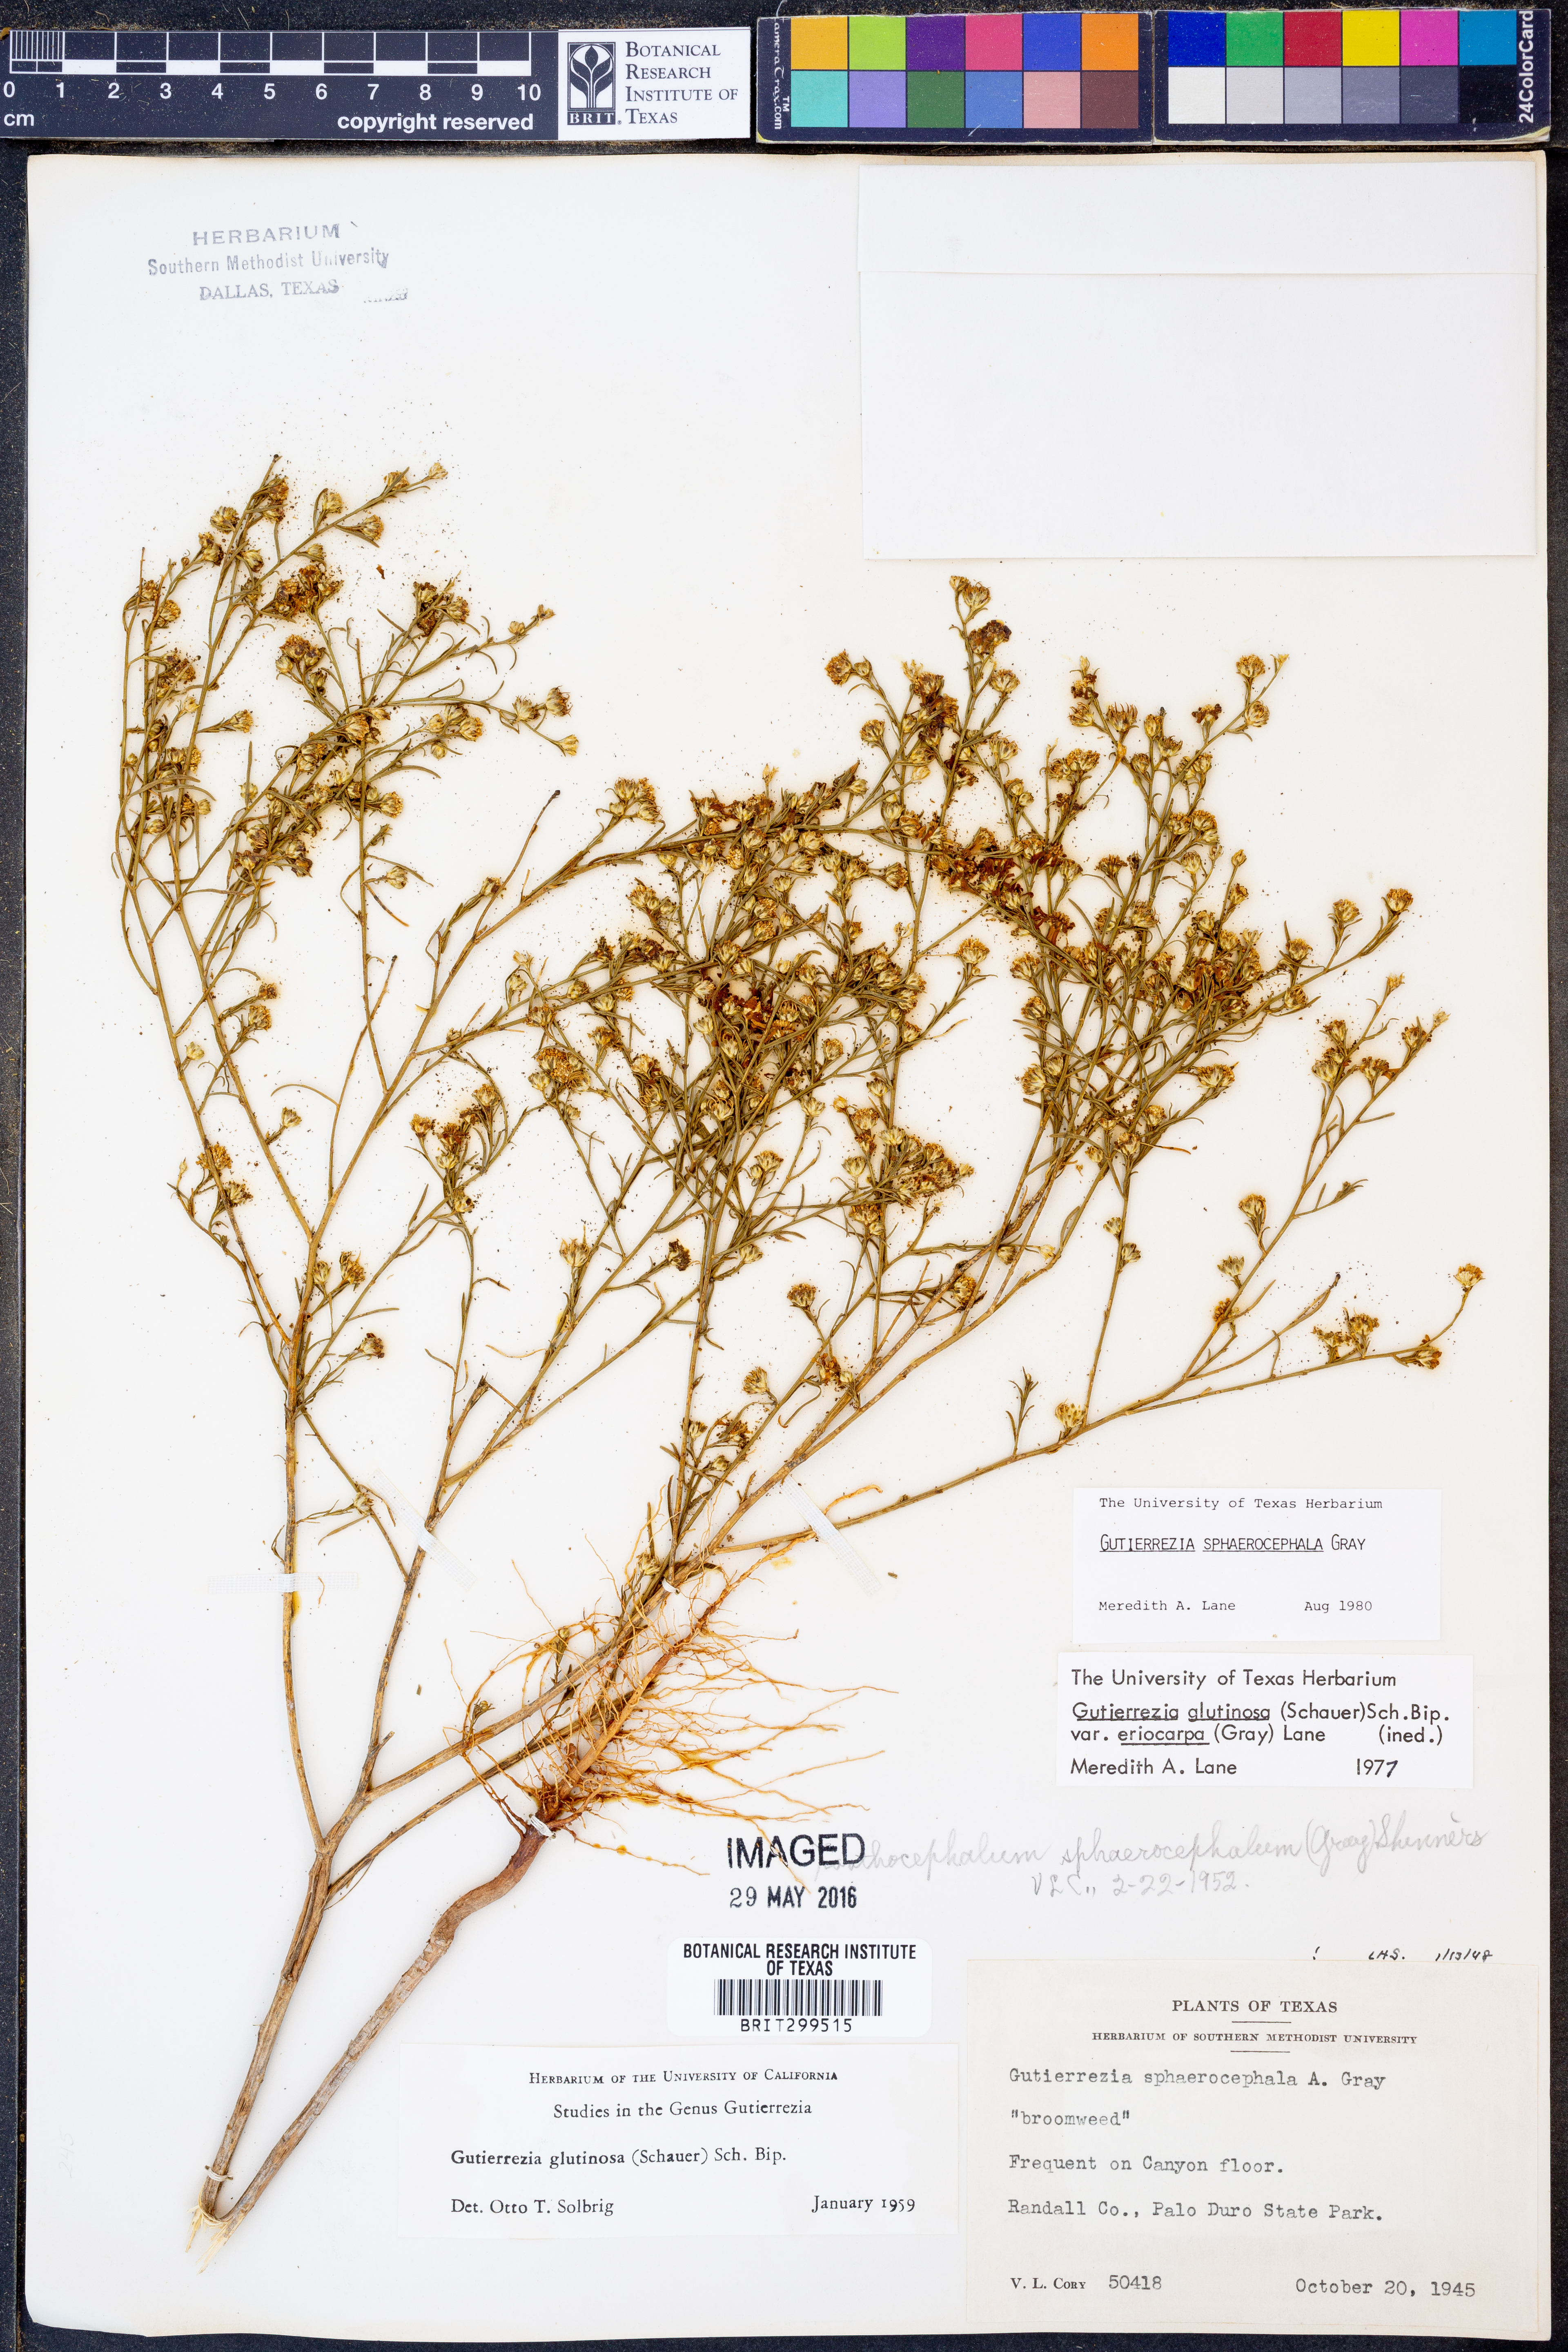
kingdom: Plantae
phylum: Tracheophyta
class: Magnoliopsida
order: Asterales
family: Asteraceae
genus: Gutierrezia
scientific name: Gutierrezia sphaerocephala
